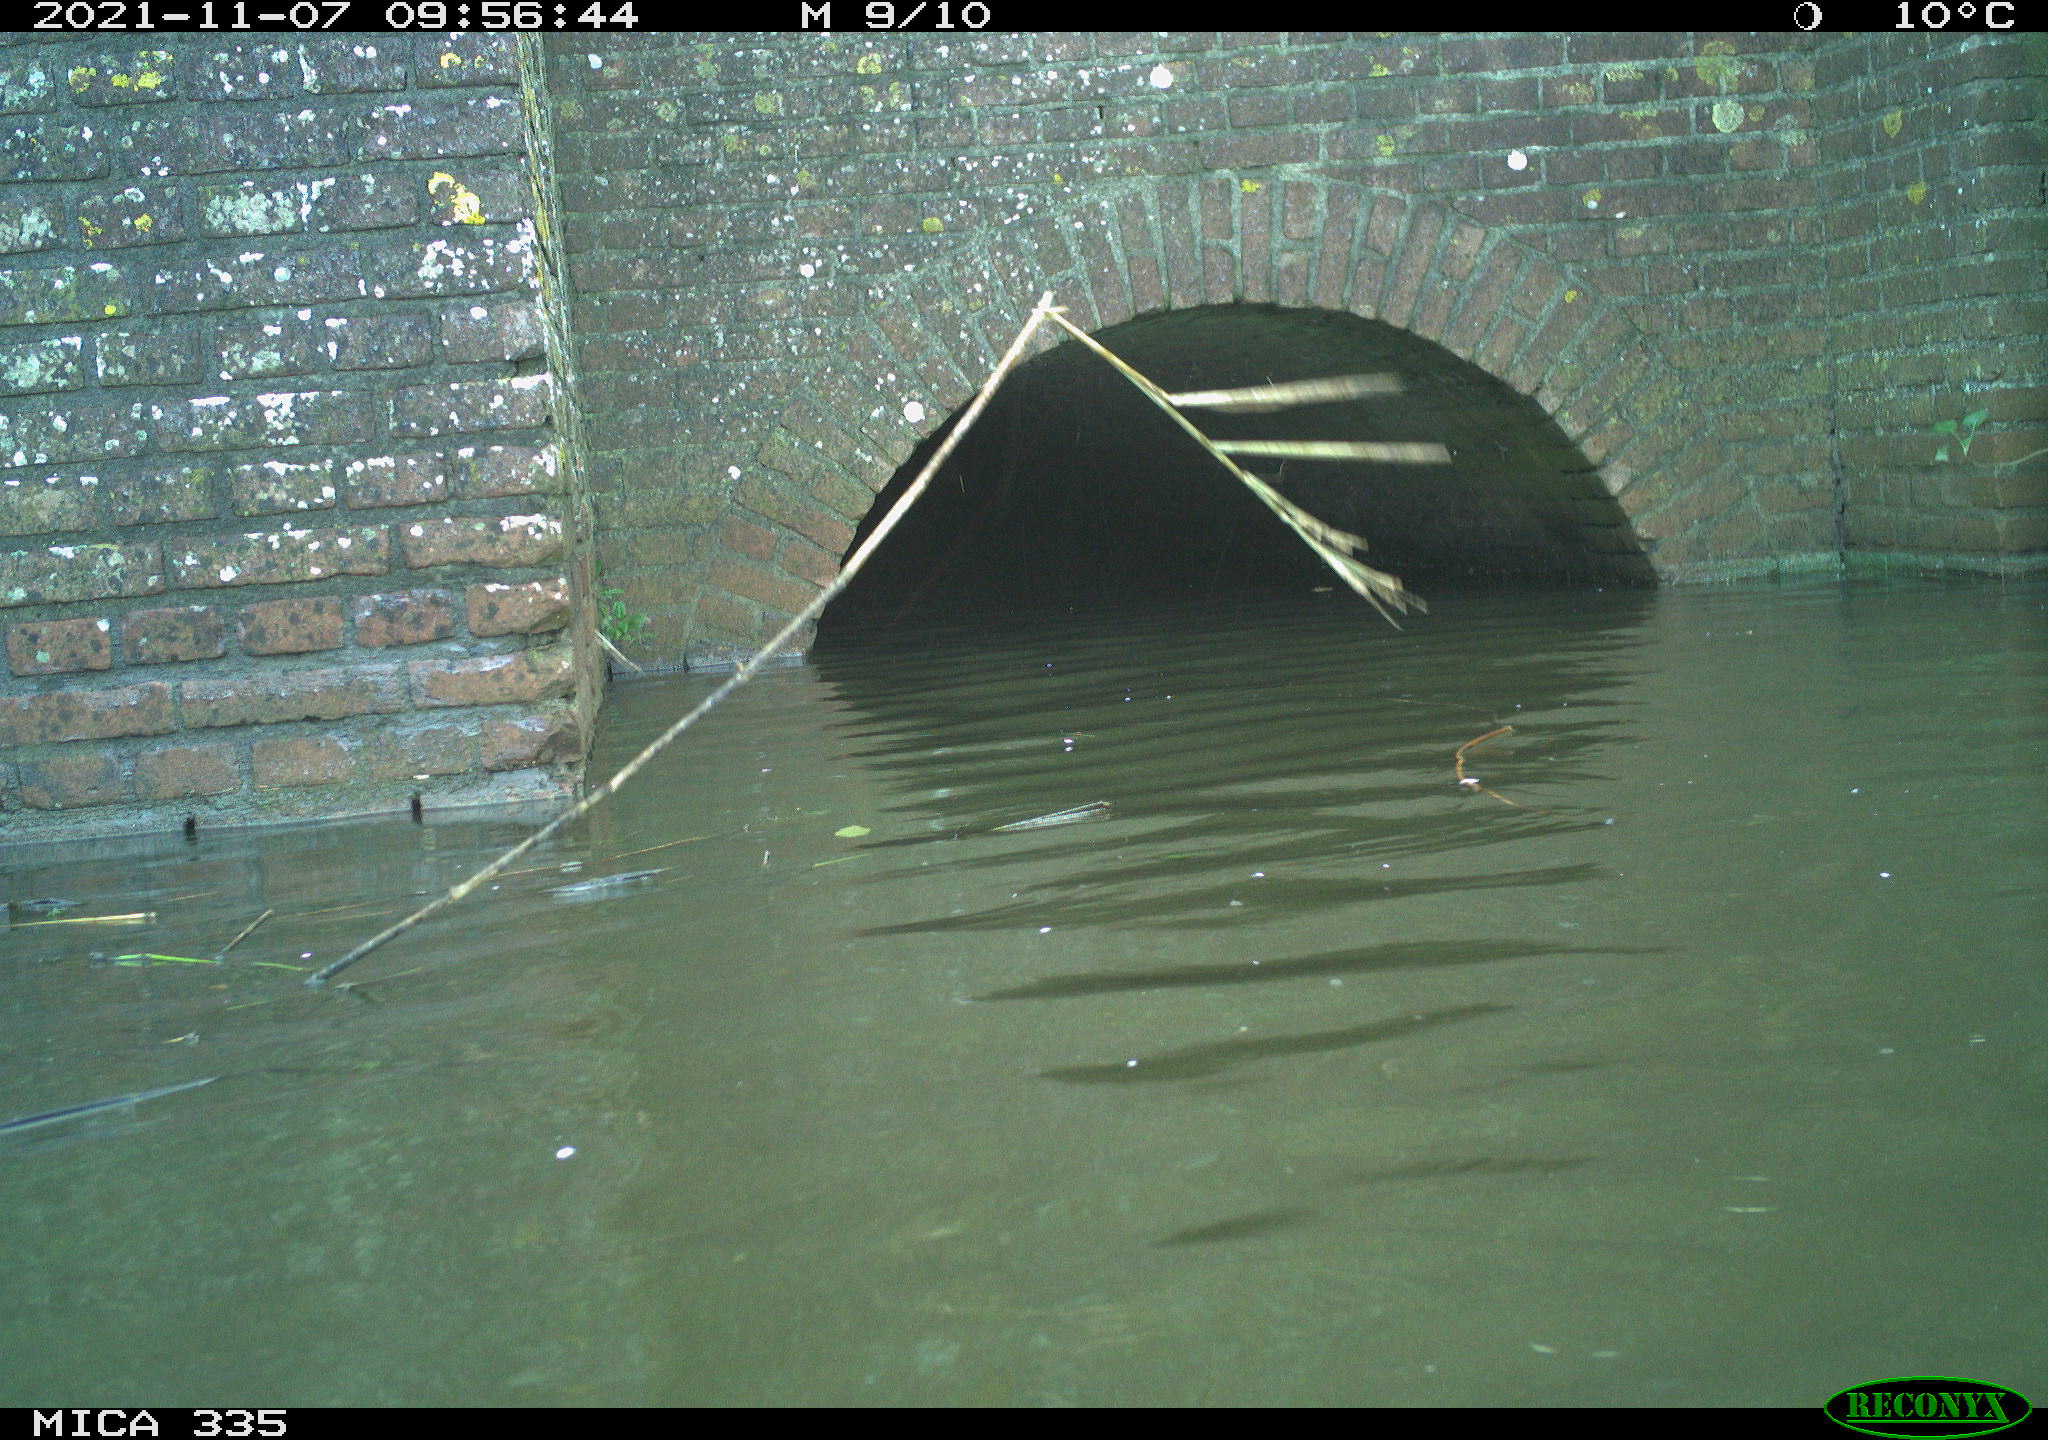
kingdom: Animalia
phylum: Chordata
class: Aves
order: Gruiformes
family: Rallidae
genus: Fulica
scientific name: Fulica atra
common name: Eurasian coot
